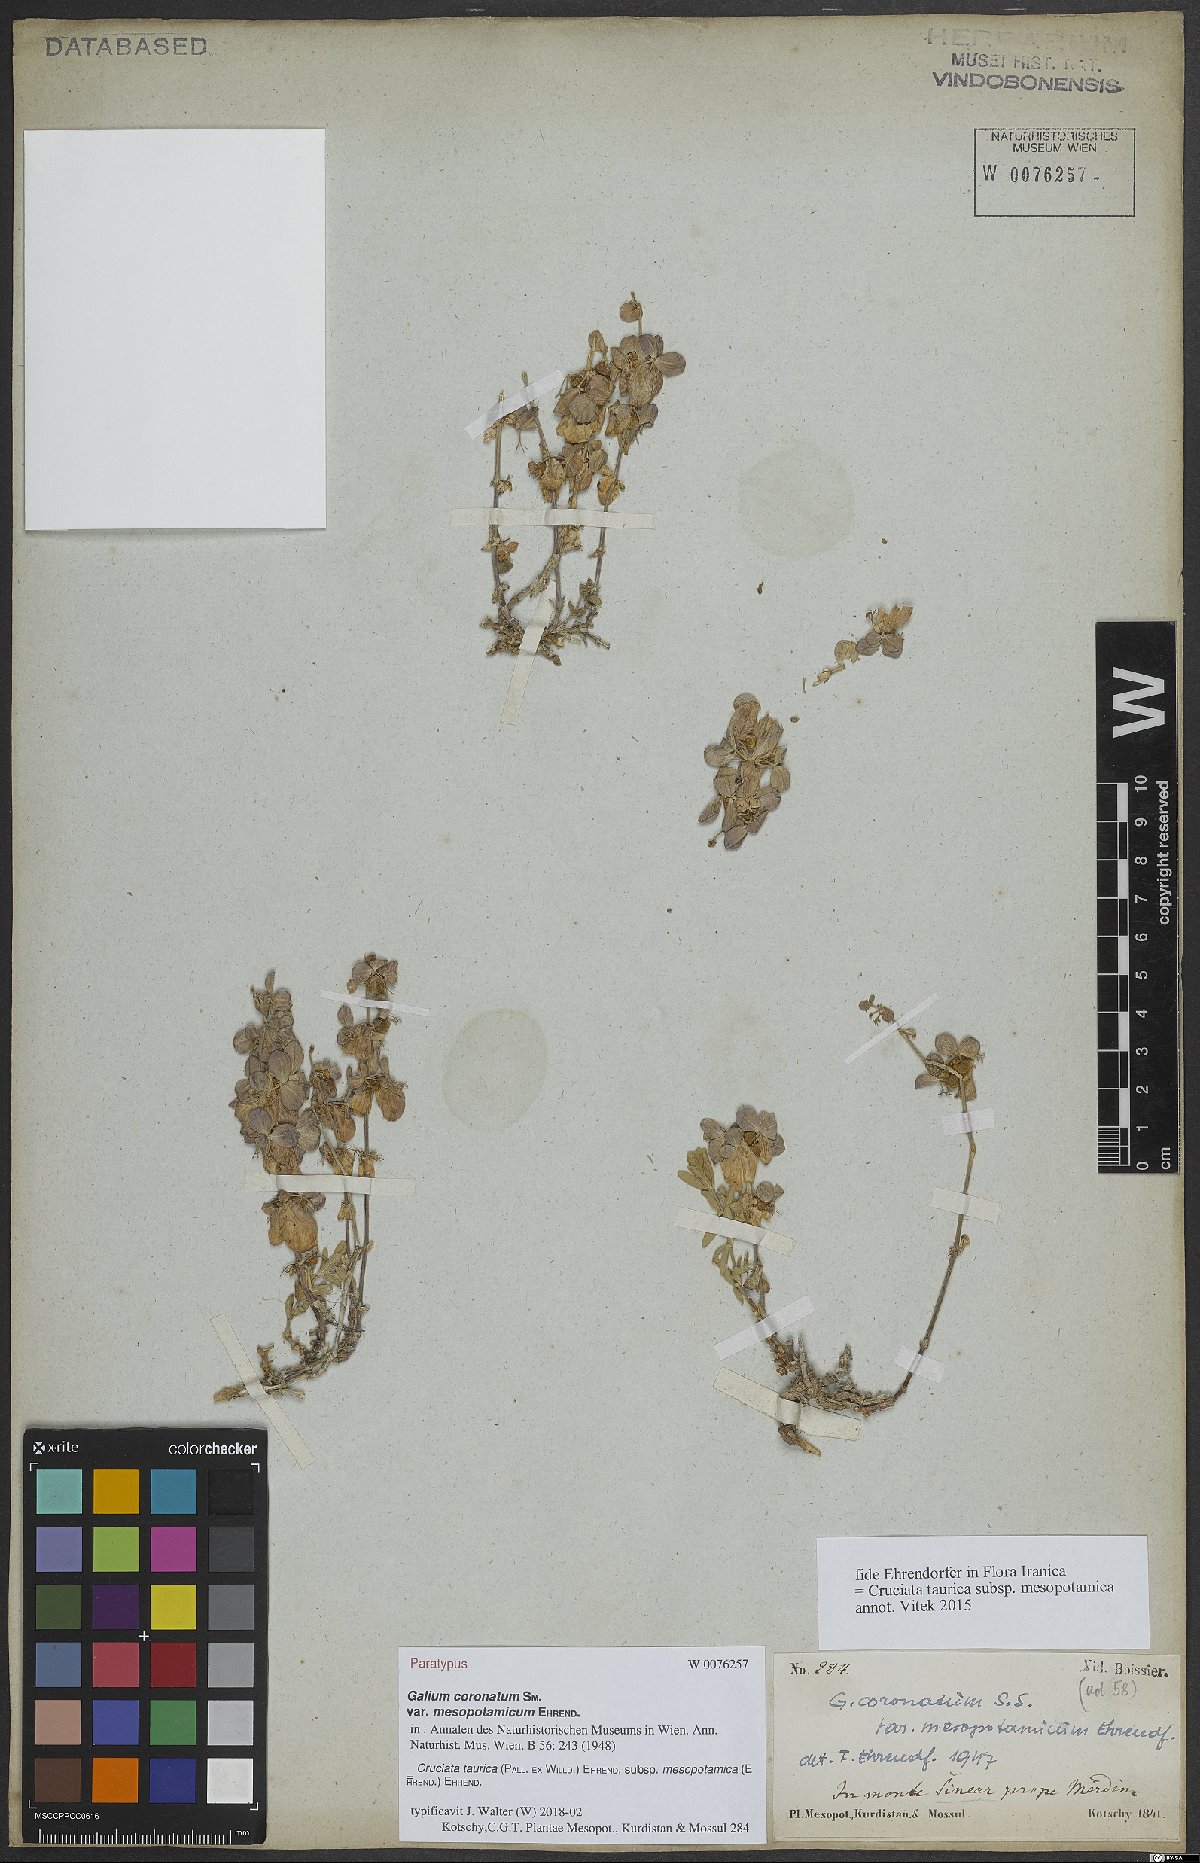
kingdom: Plantae
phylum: Tracheophyta
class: Magnoliopsida
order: Gentianales
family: Rubiaceae
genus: Cruciata
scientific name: Cruciata taurica
